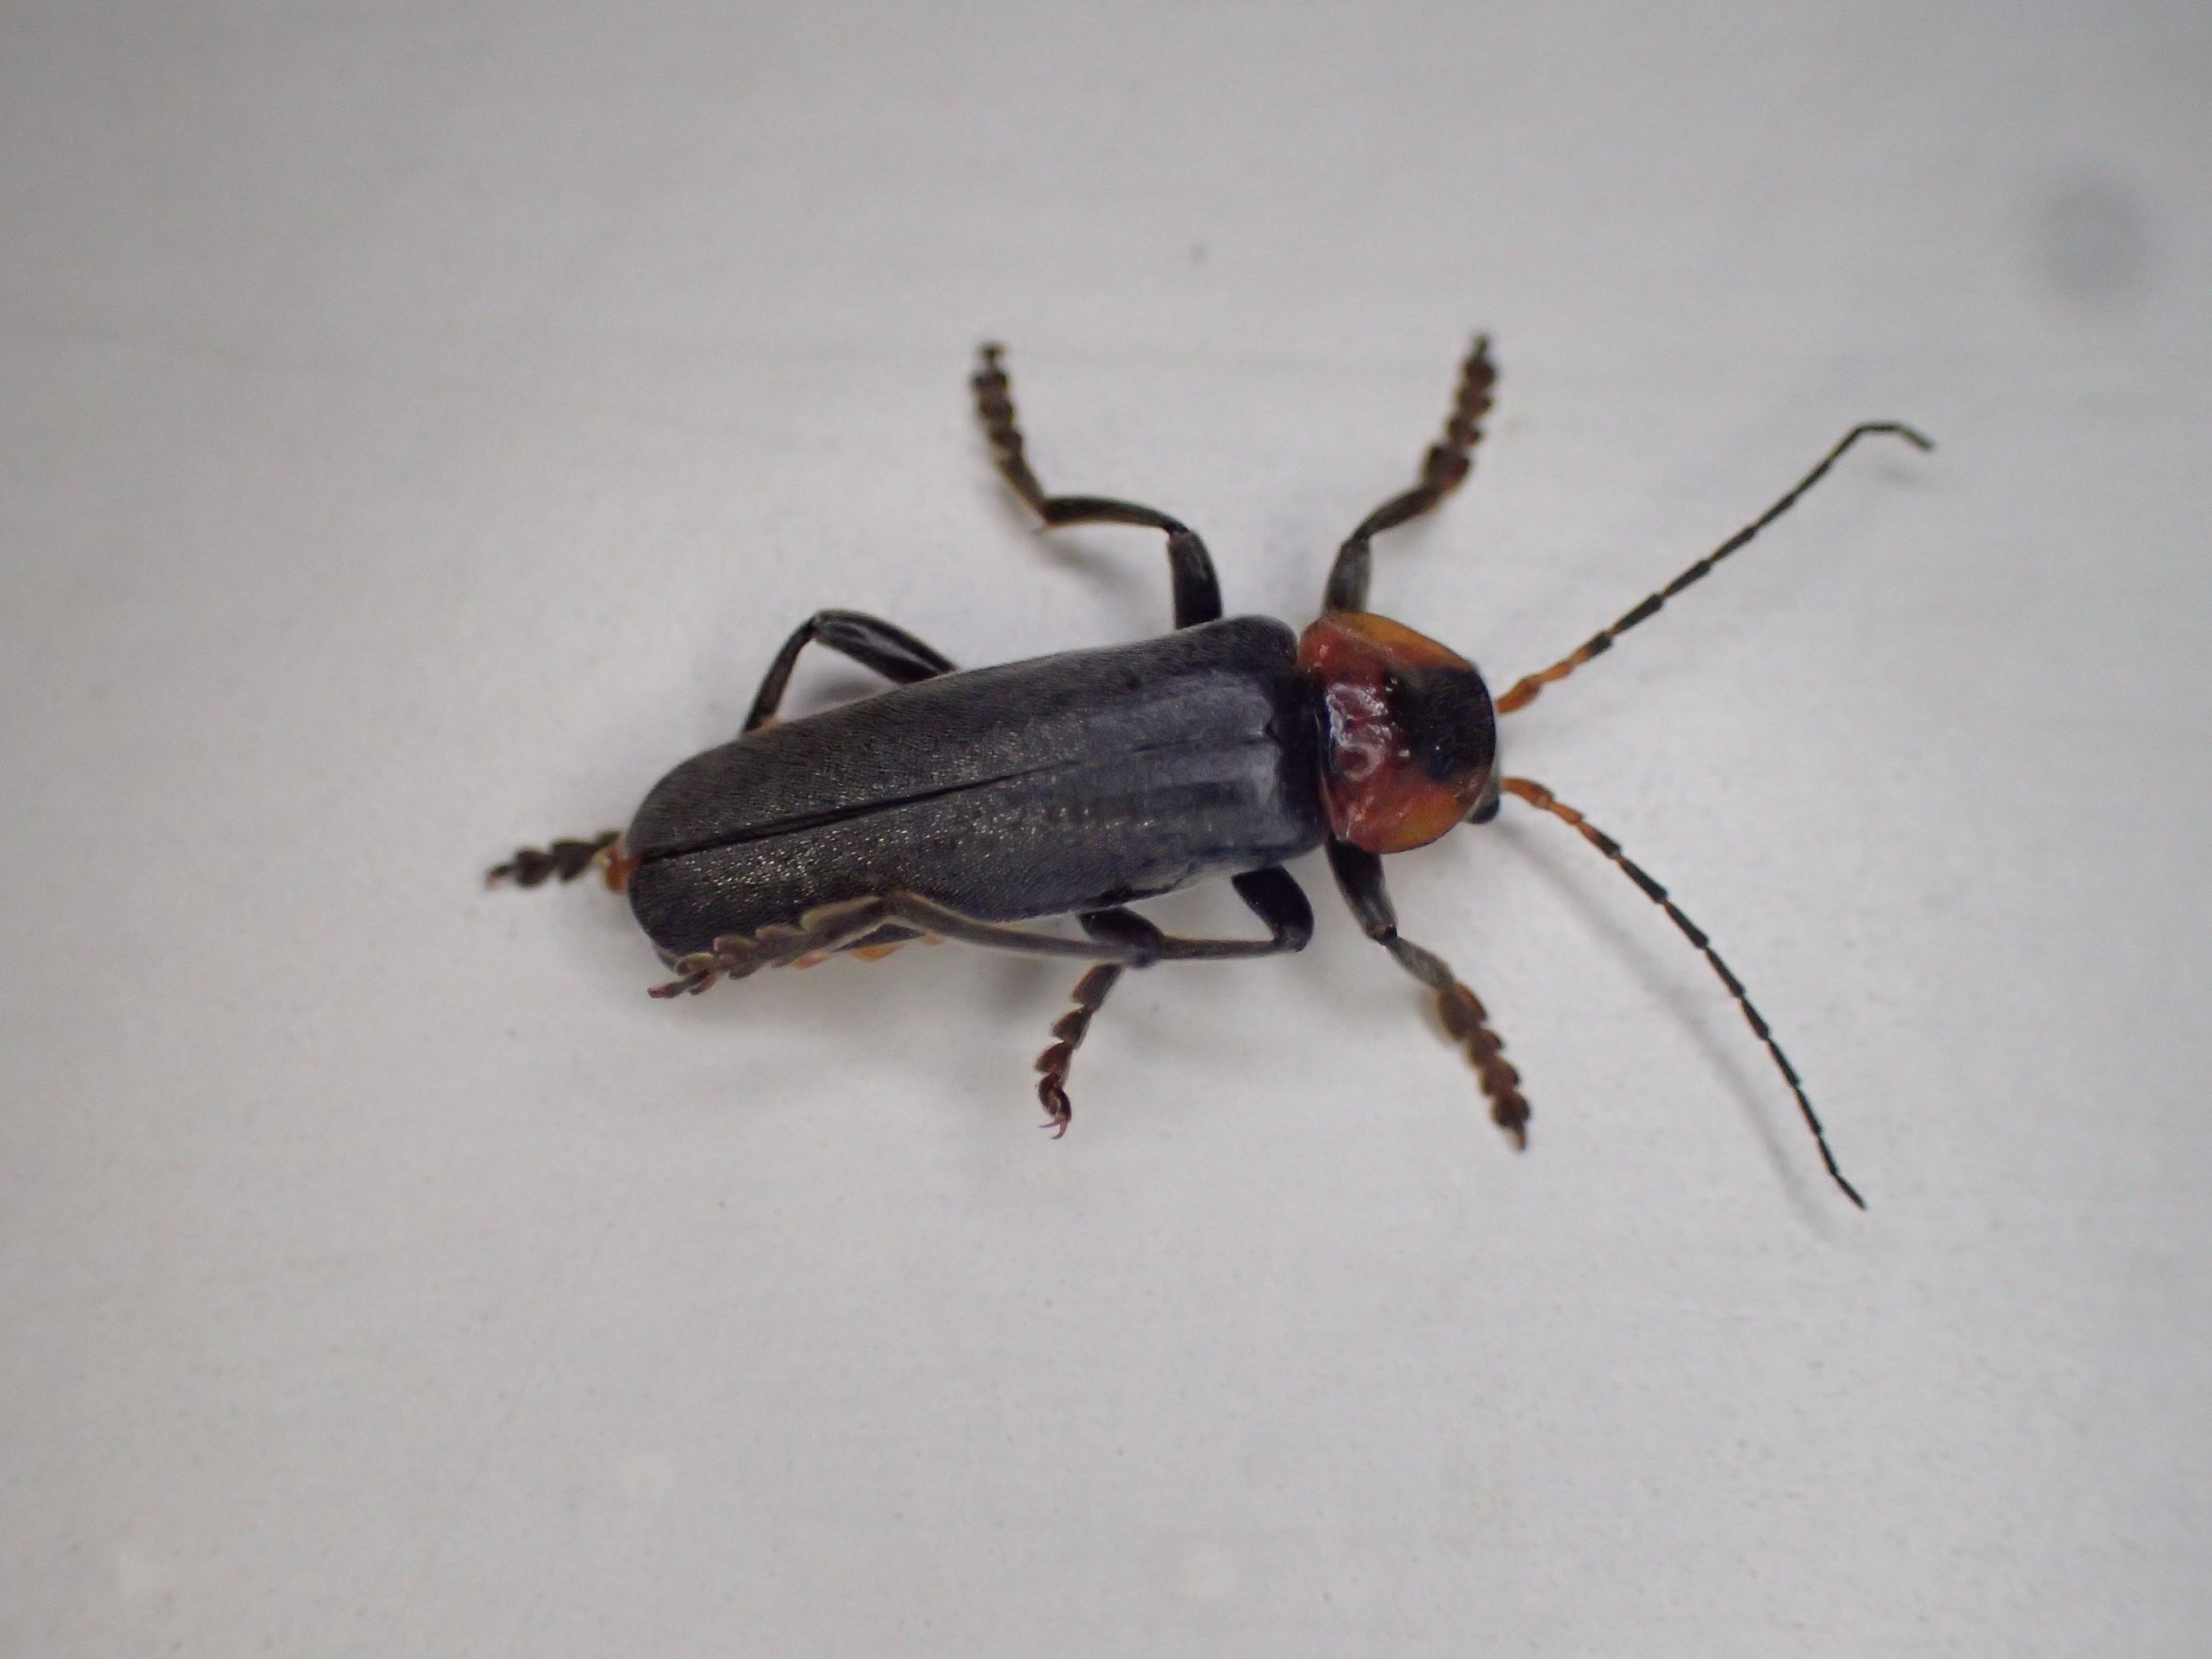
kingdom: Animalia
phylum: Arthropoda
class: Insecta
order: Coleoptera
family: Cantharidae
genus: Cantharis
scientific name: Cantharis fusca
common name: Stor blødvinge
